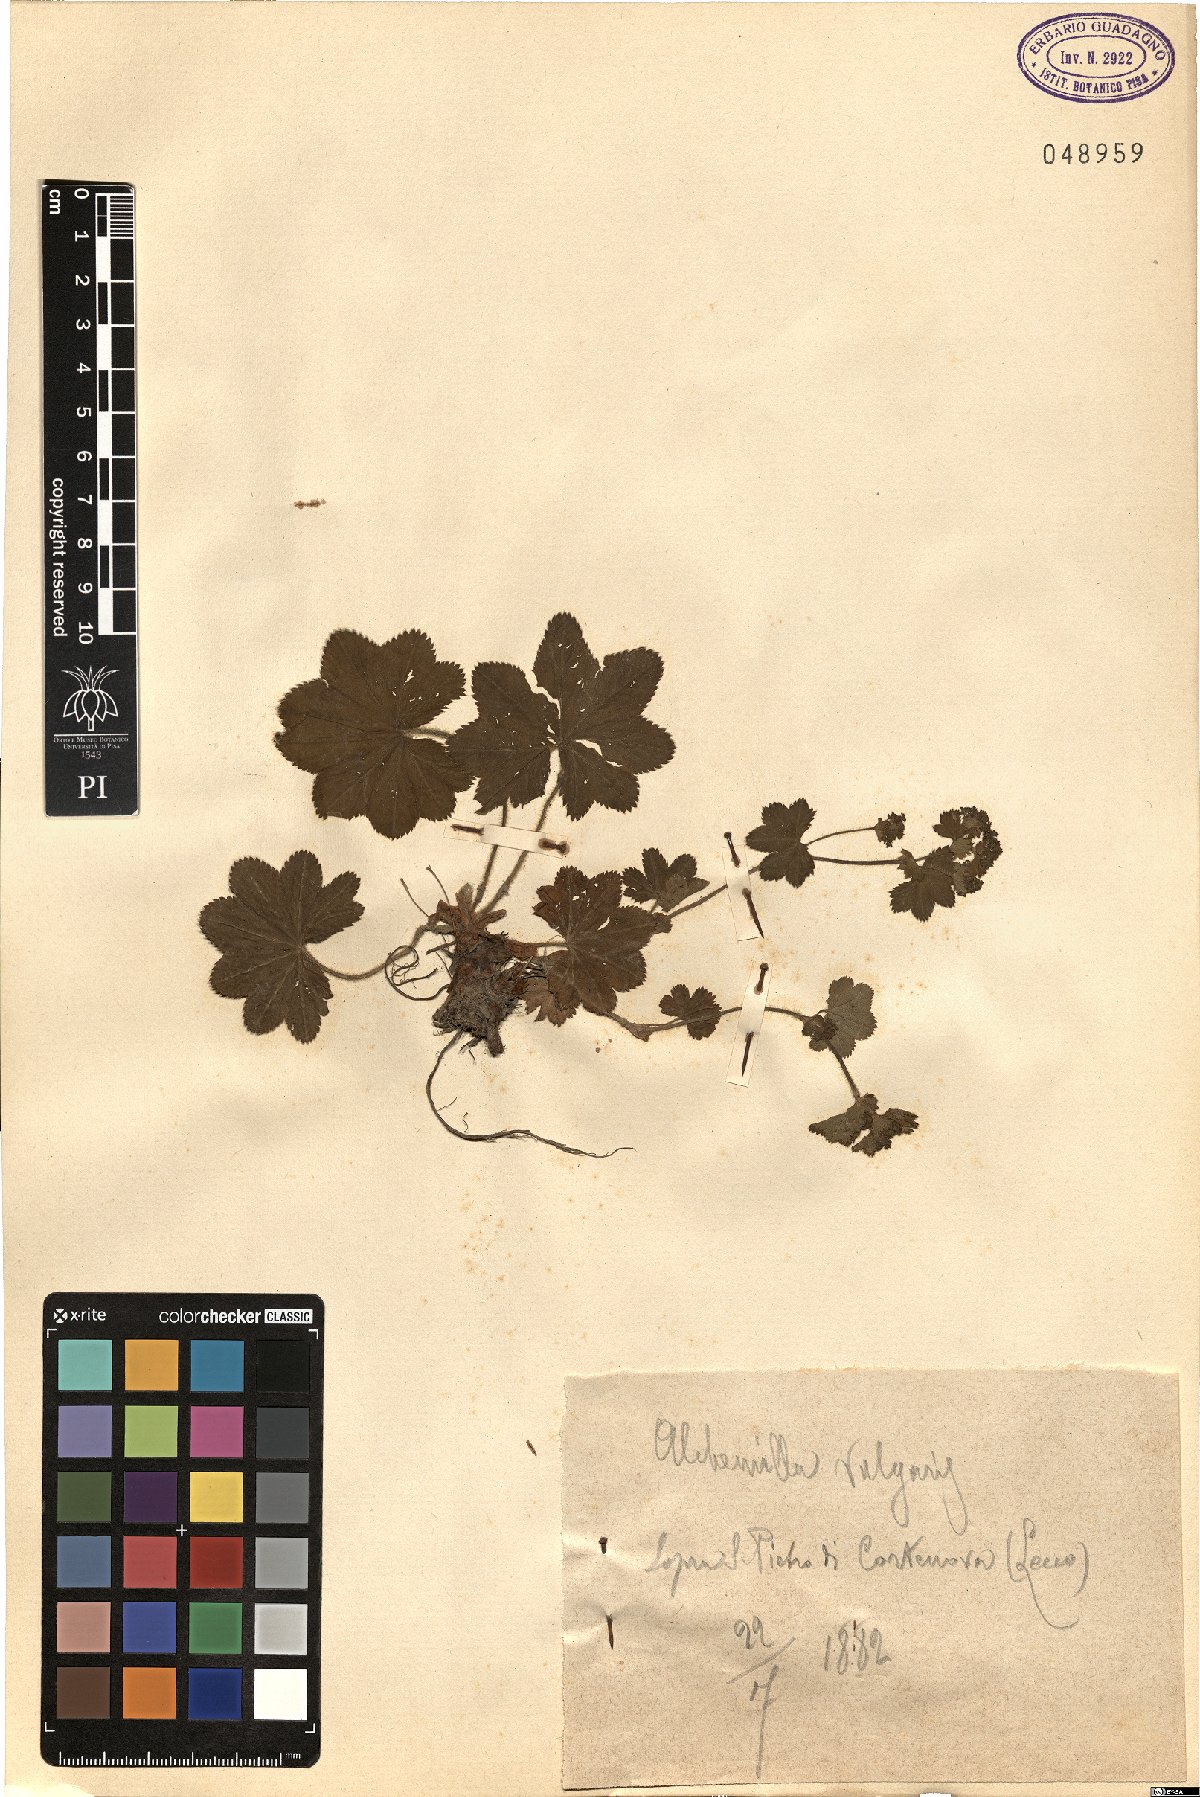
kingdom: Plantae
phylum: Tracheophyta
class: Magnoliopsida
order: Rosales
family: Rosaceae
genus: Alchemilla
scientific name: Alchemilla xanthochlora
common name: Intermediate lady's-mantle
